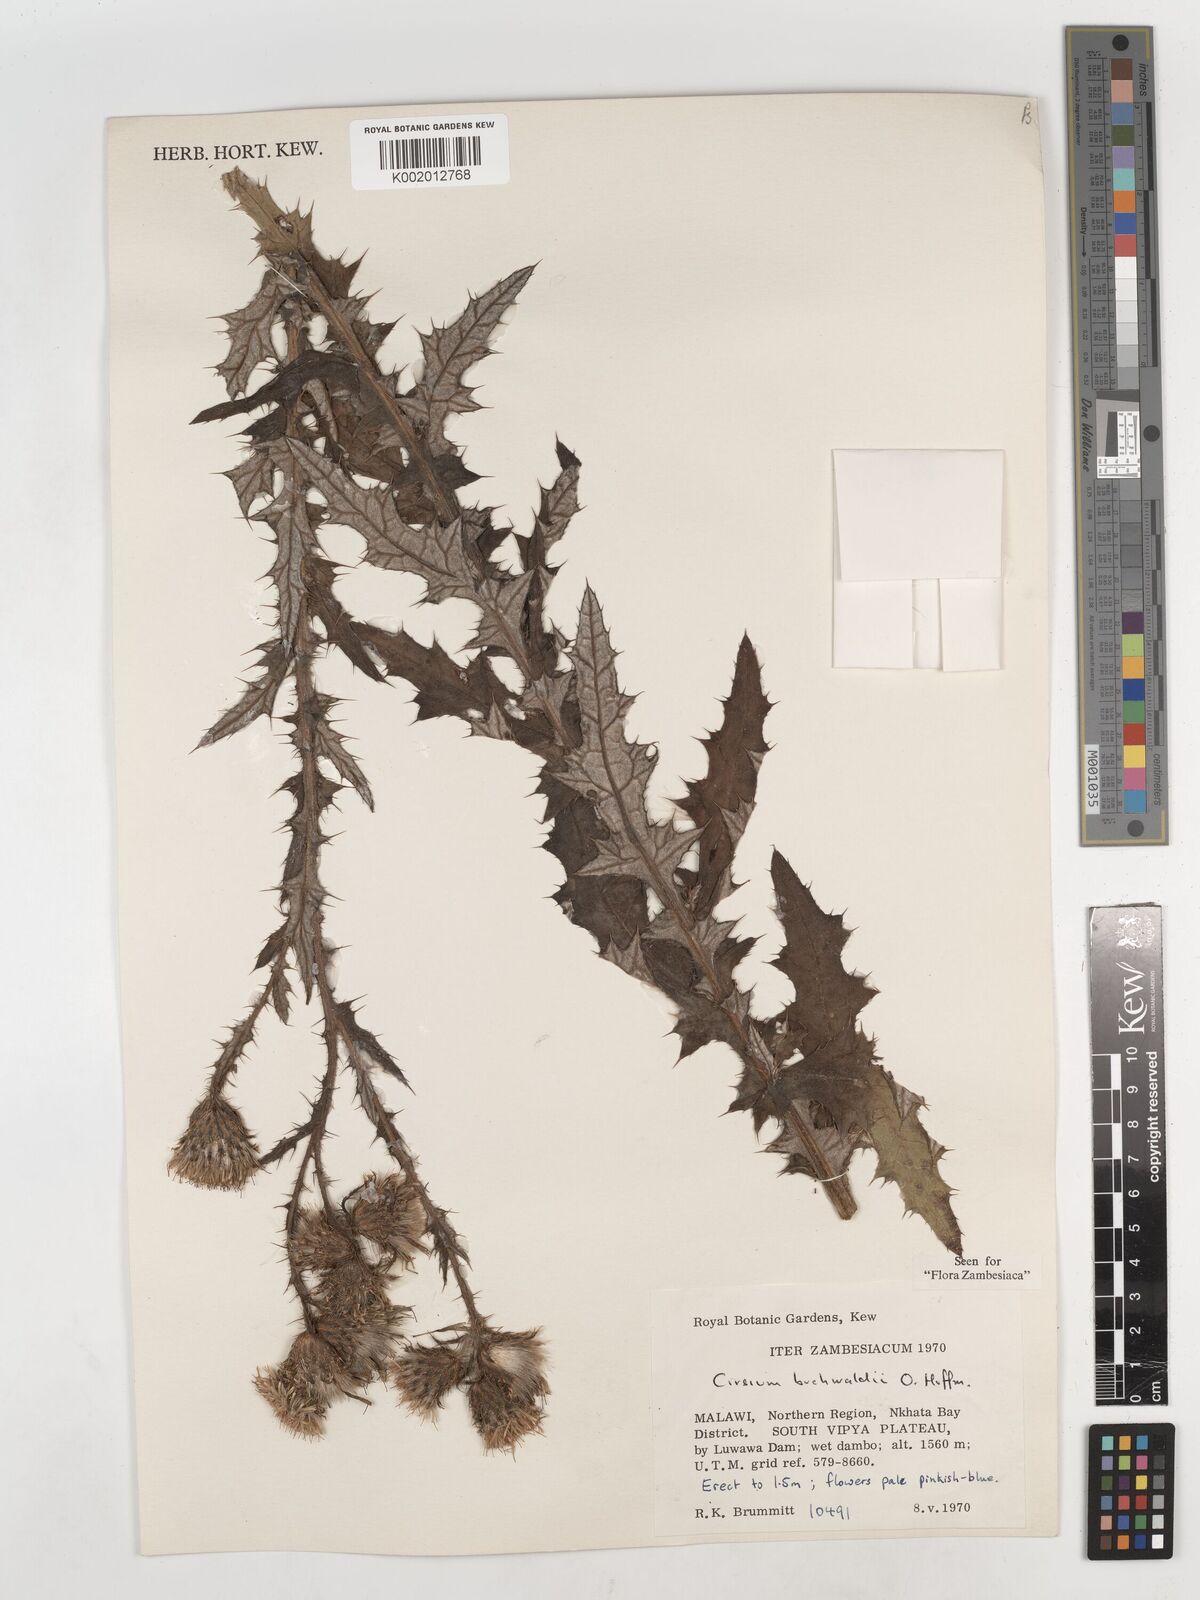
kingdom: Plantae
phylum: Tracheophyta
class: Magnoliopsida
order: Asterales
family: Asteraceae
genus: Cirsium
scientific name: Cirsium buchwaldii
